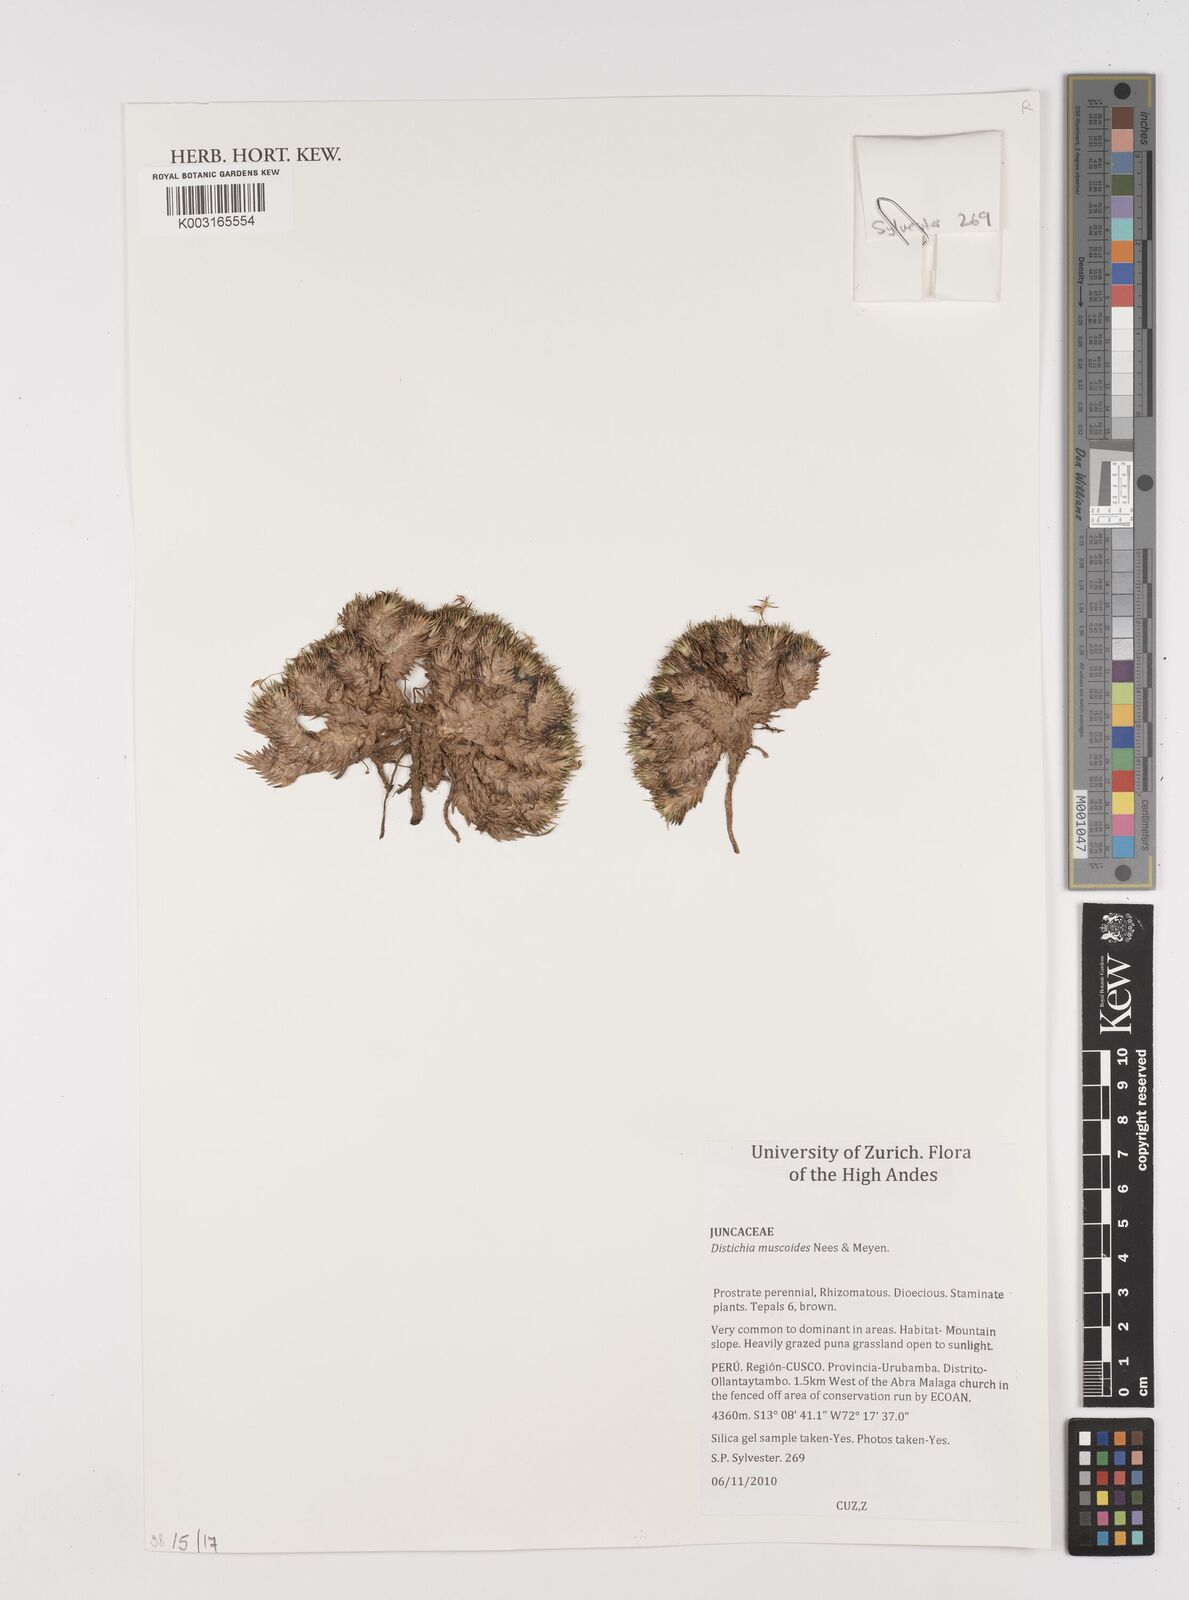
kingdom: Plantae
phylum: Tracheophyta
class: Liliopsida
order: Poales
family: Juncaceae
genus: Distichia
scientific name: Distichia muscoides
